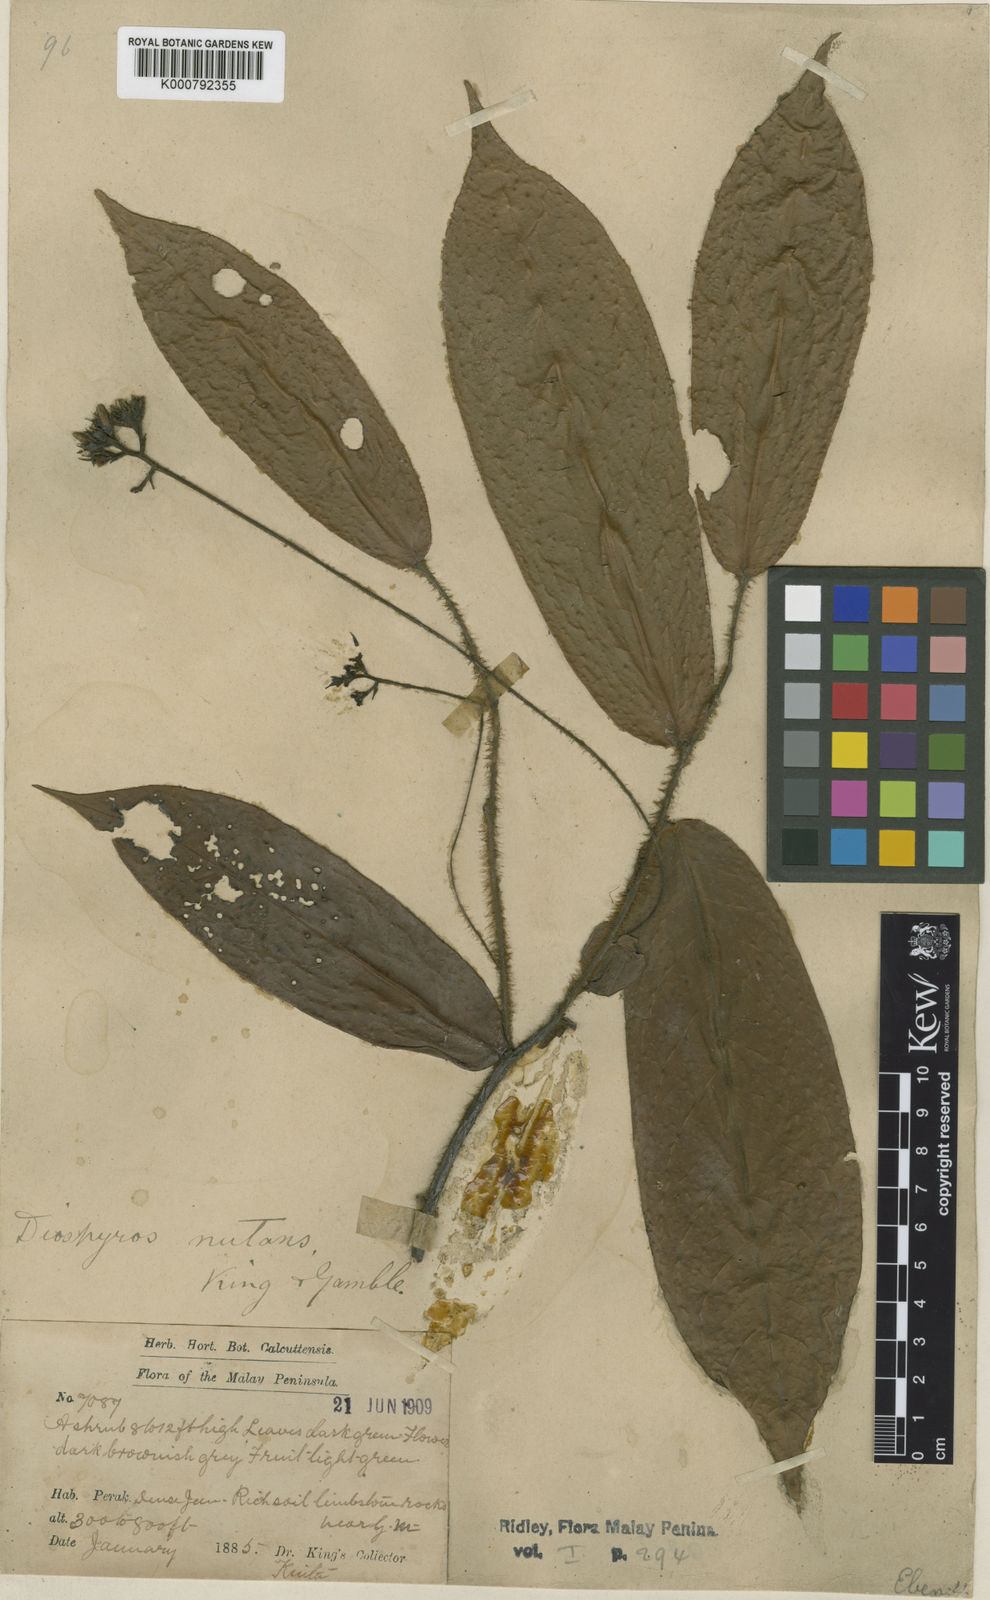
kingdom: Plantae
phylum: Tracheophyta
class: Magnoliopsida
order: Ericales
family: Ebenaceae
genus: Diospyros
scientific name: Diospyros nutans
